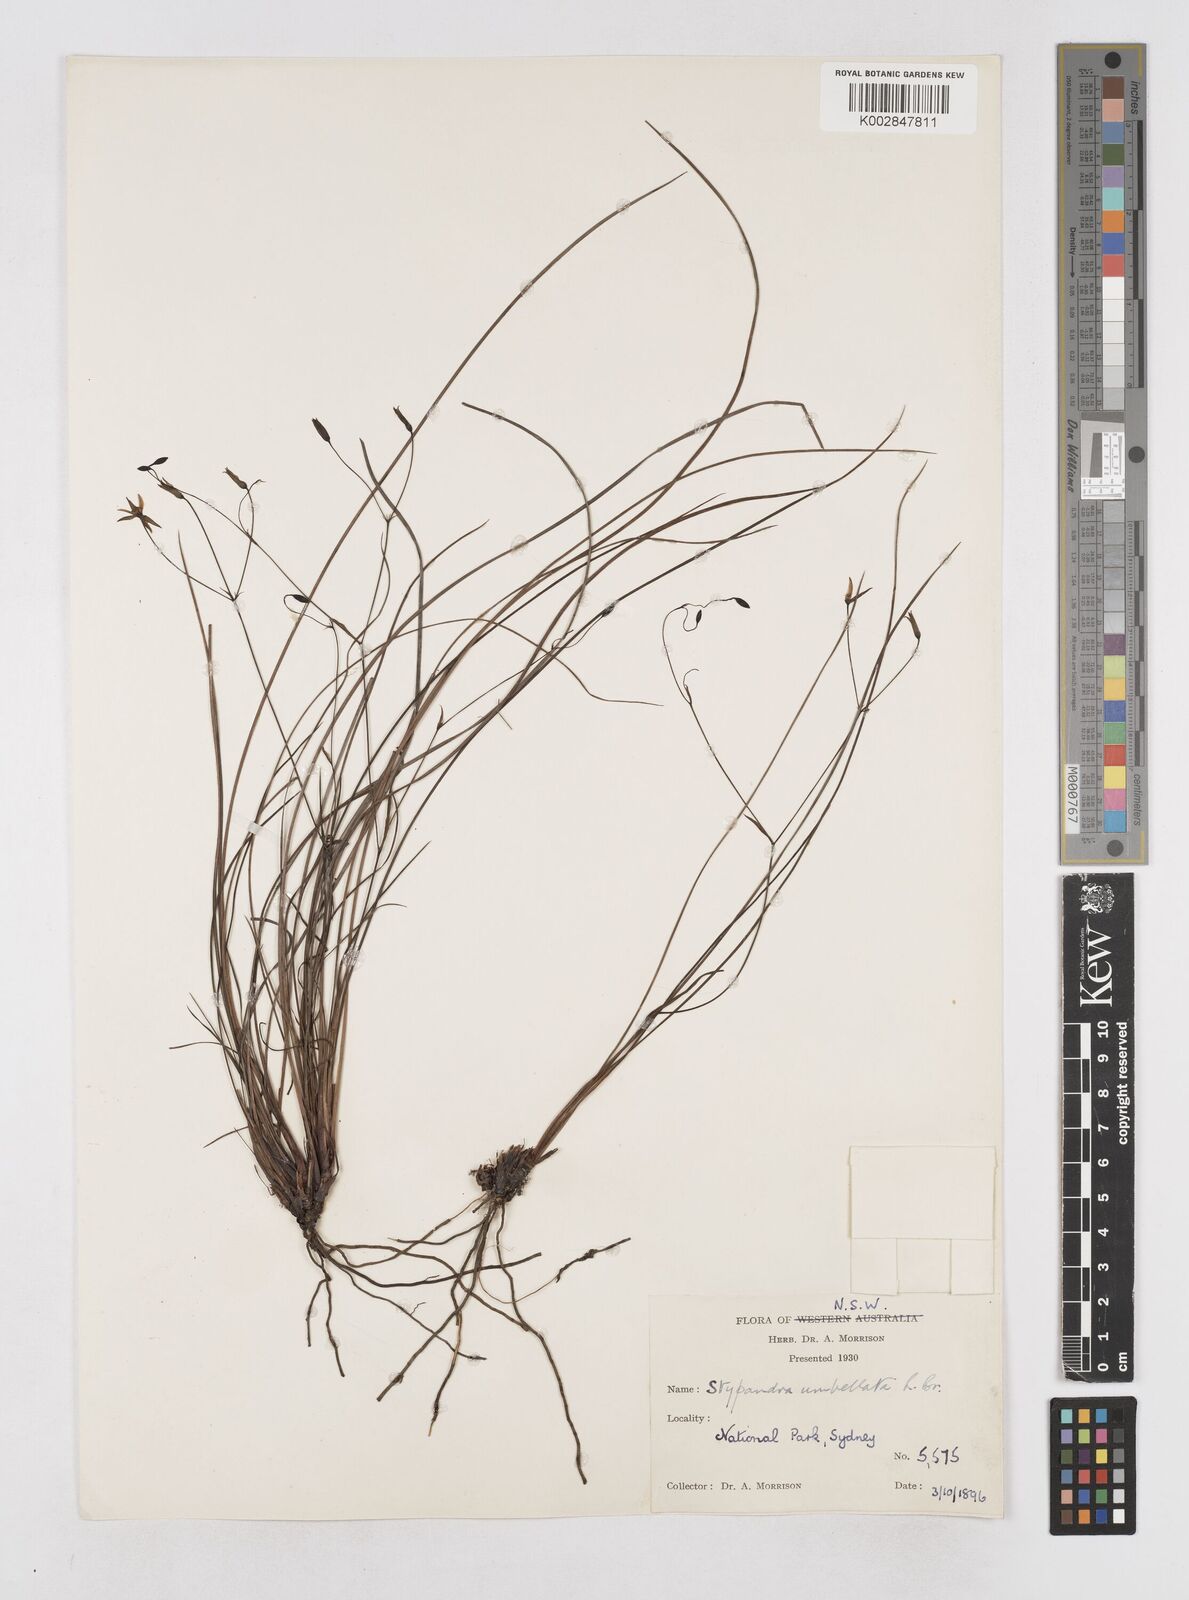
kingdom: Plantae
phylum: Tracheophyta
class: Liliopsida
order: Asparagales
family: Asphodelaceae
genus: Thelionema
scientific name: Thelionema umbellatum
